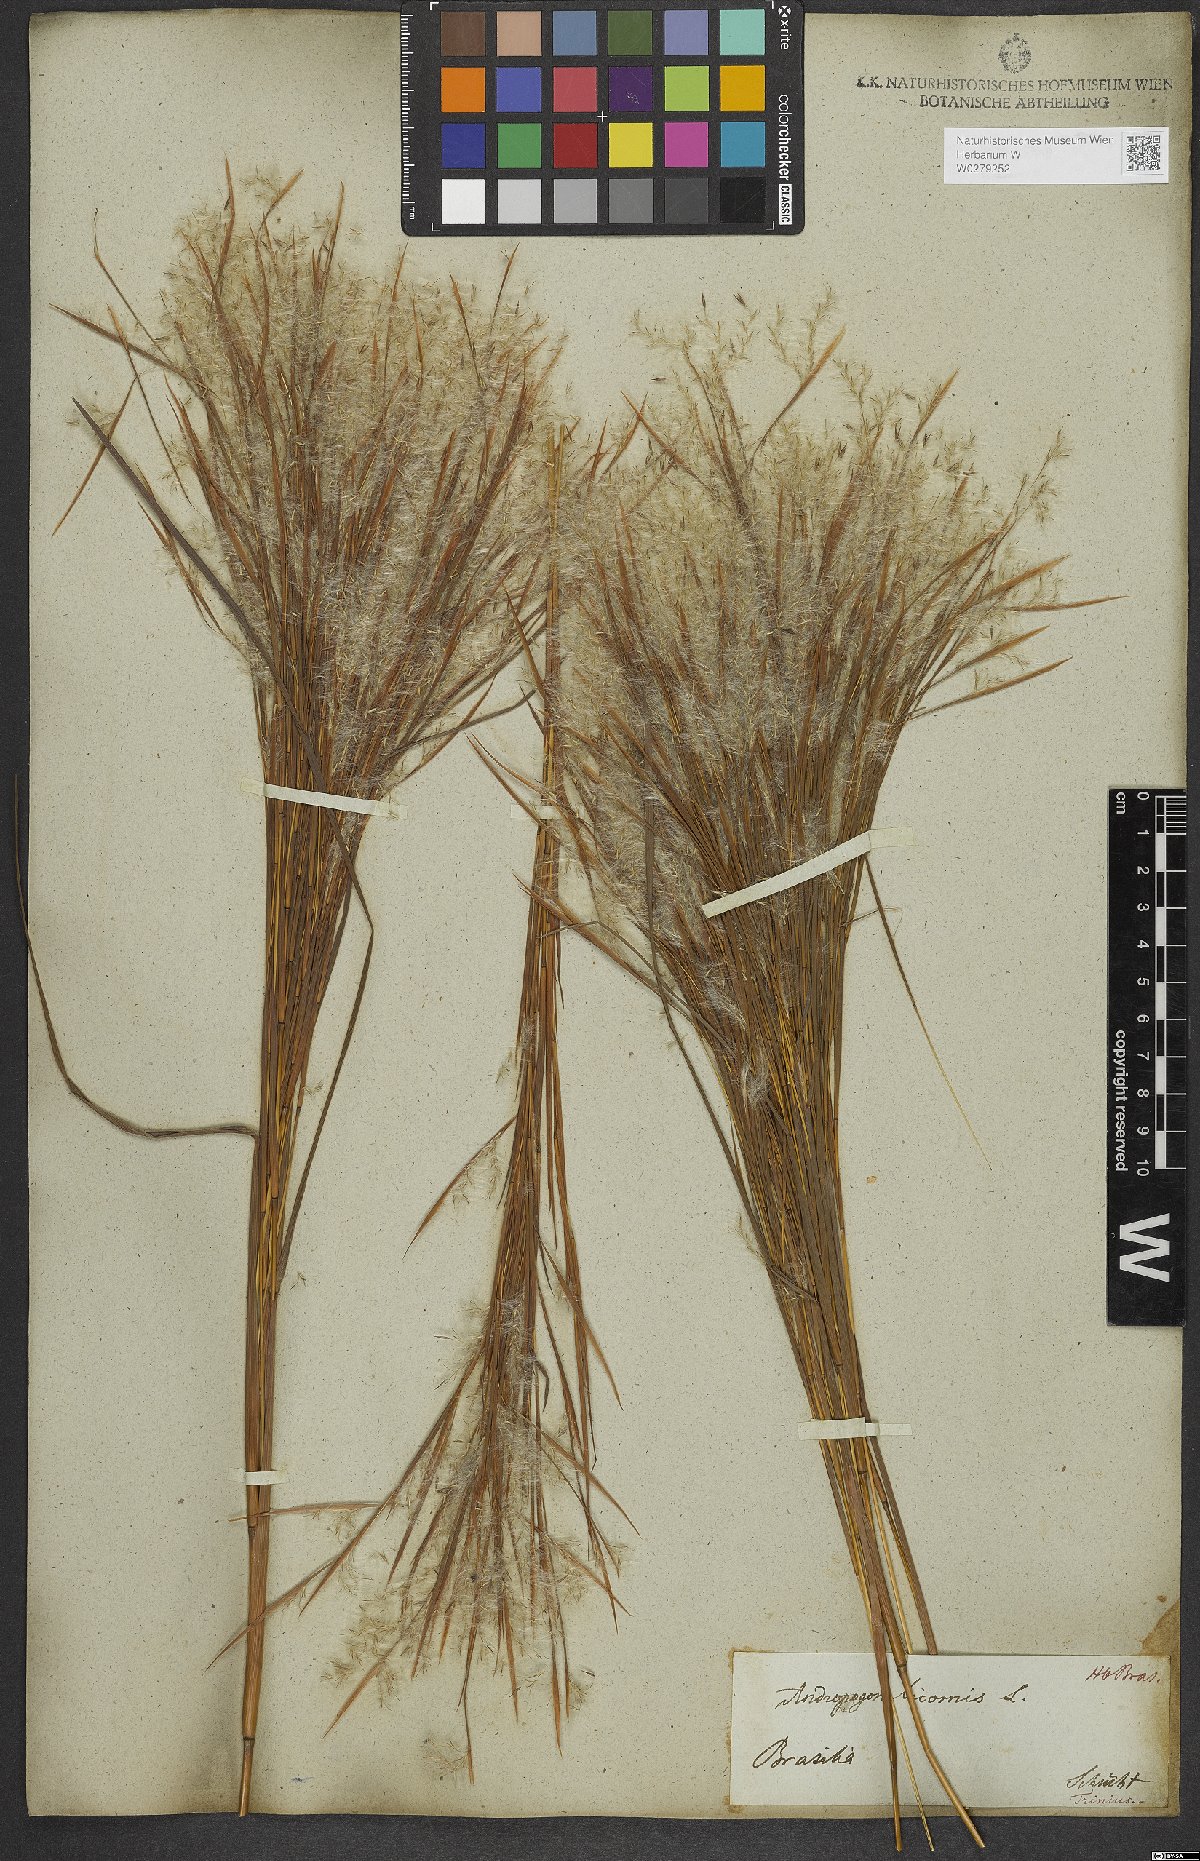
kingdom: Plantae
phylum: Tracheophyta
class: Liliopsida
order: Poales
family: Poaceae
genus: Andropogon
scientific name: Andropogon bicornis
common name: West indian foxtail grass
